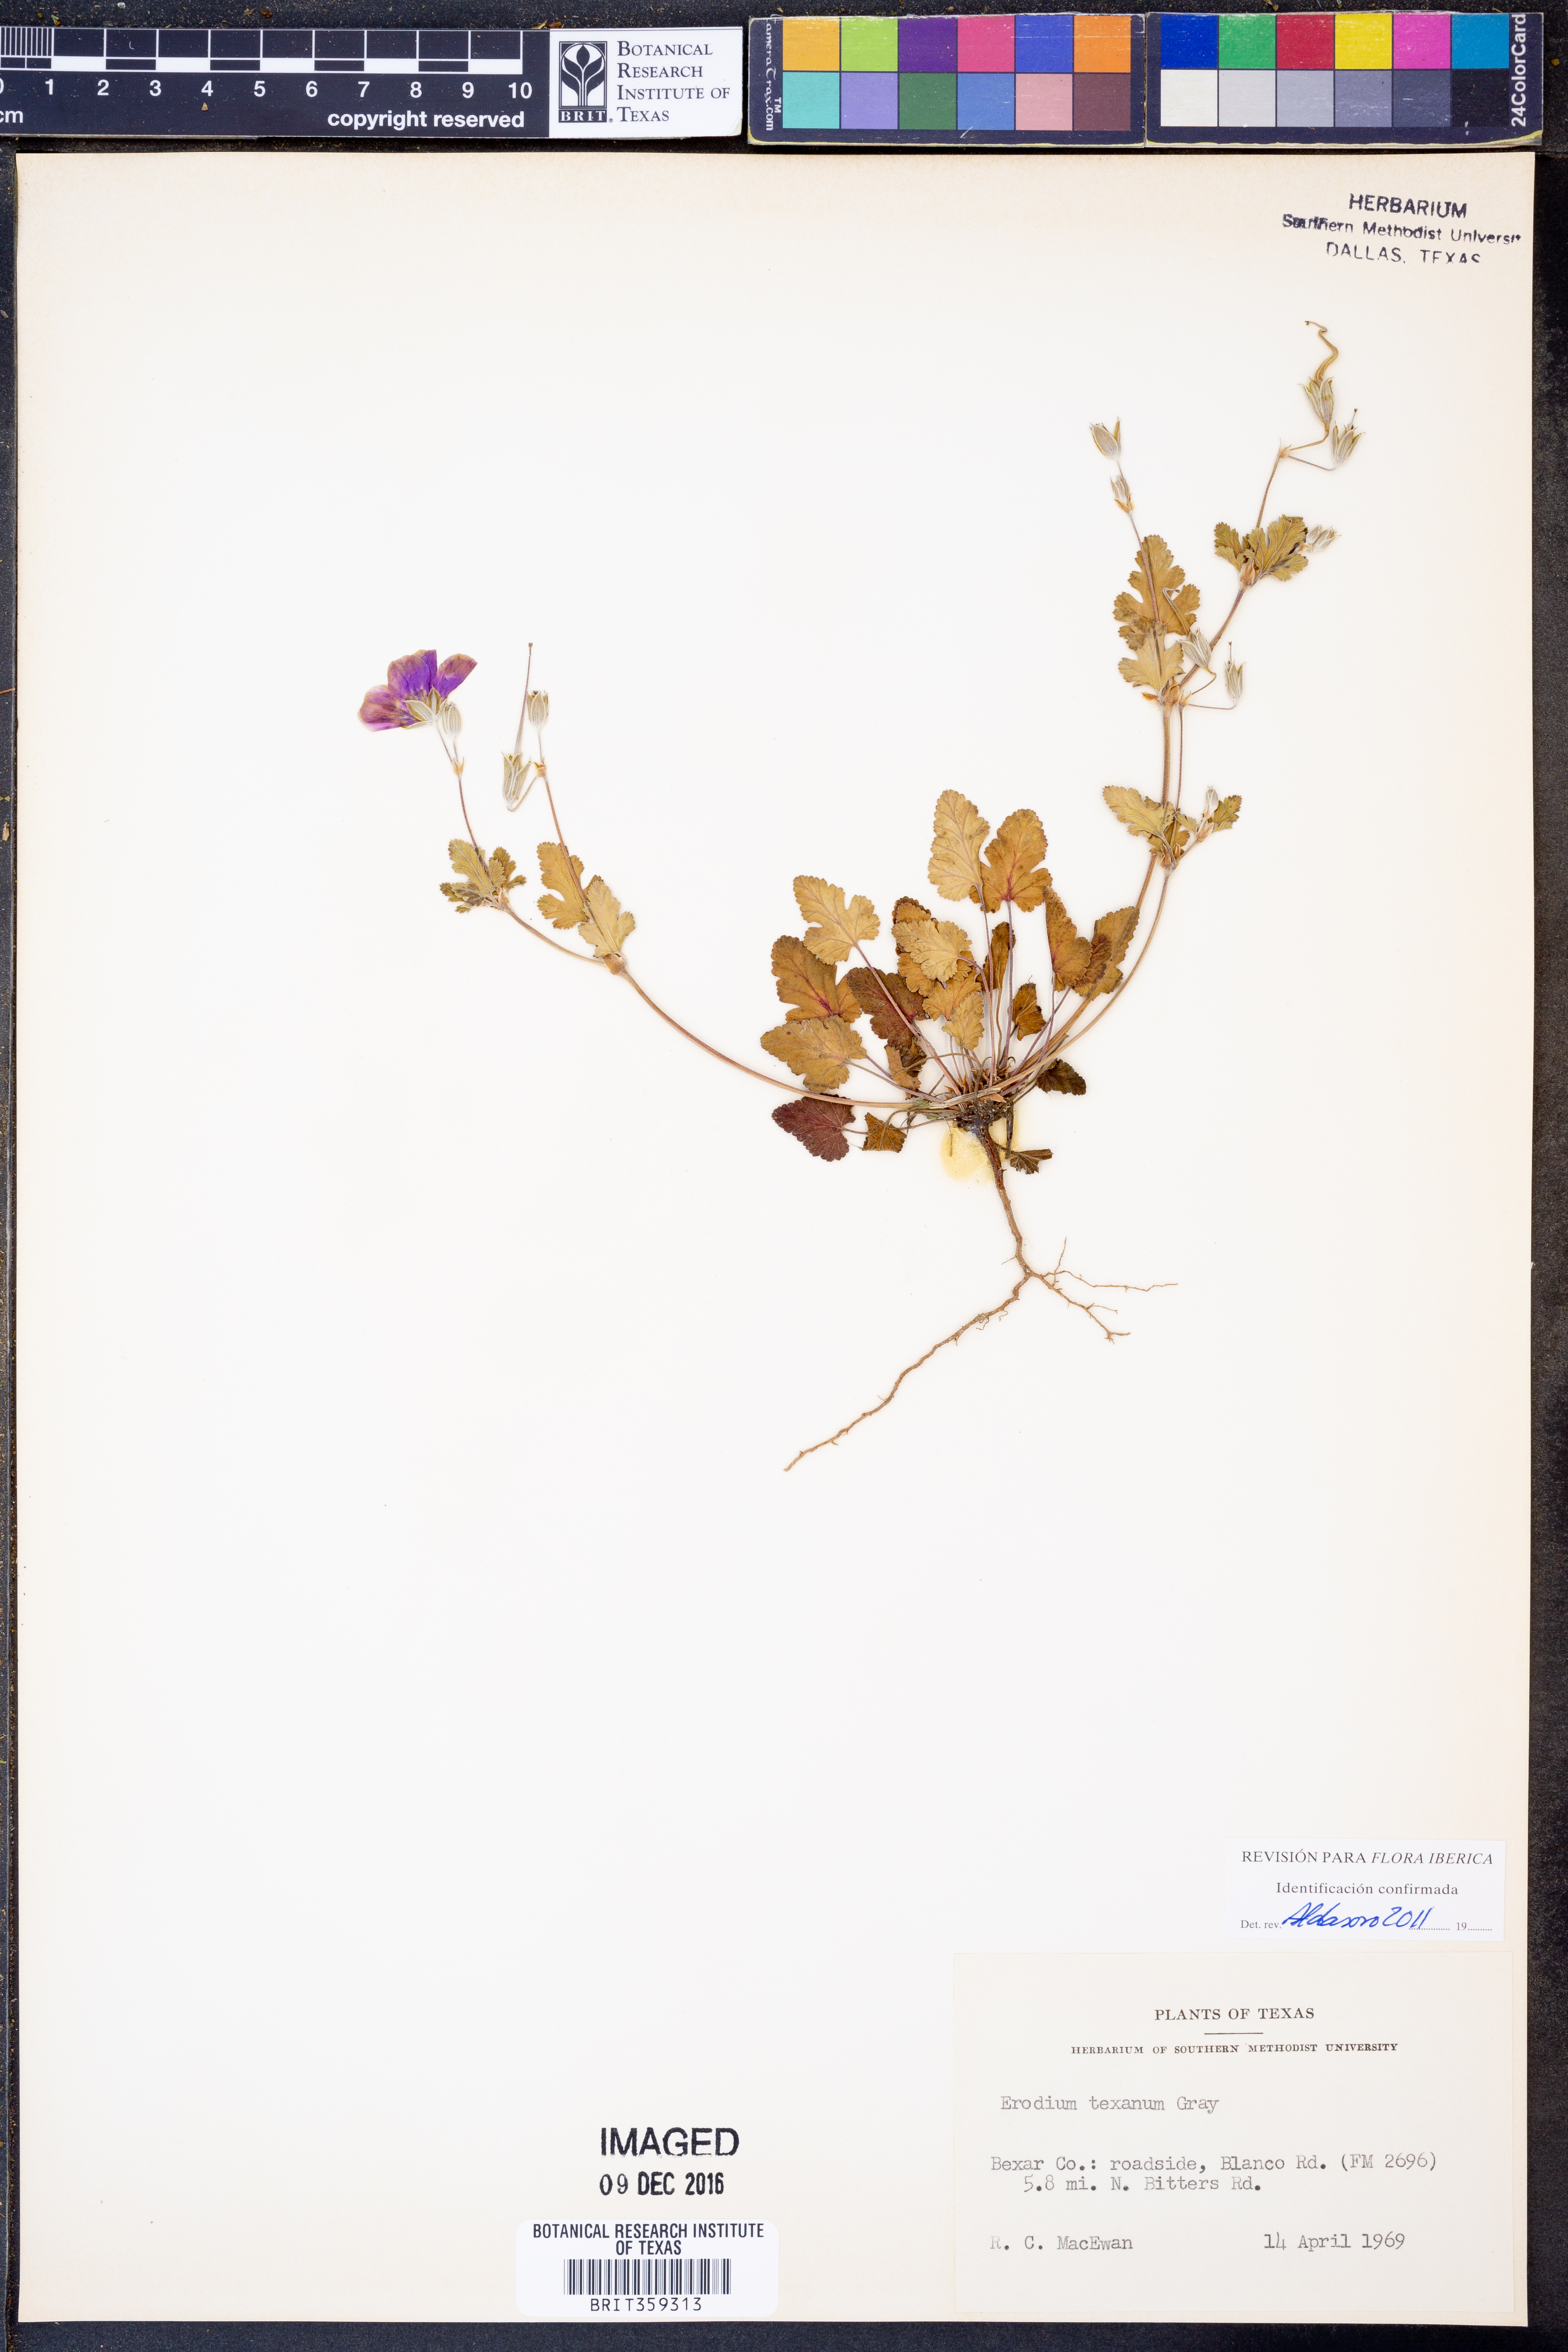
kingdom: Plantae
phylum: Tracheophyta
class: Magnoliopsida
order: Geraniales
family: Geraniaceae
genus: Erodium
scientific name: Erodium texanum
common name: Texas stork's-bill
